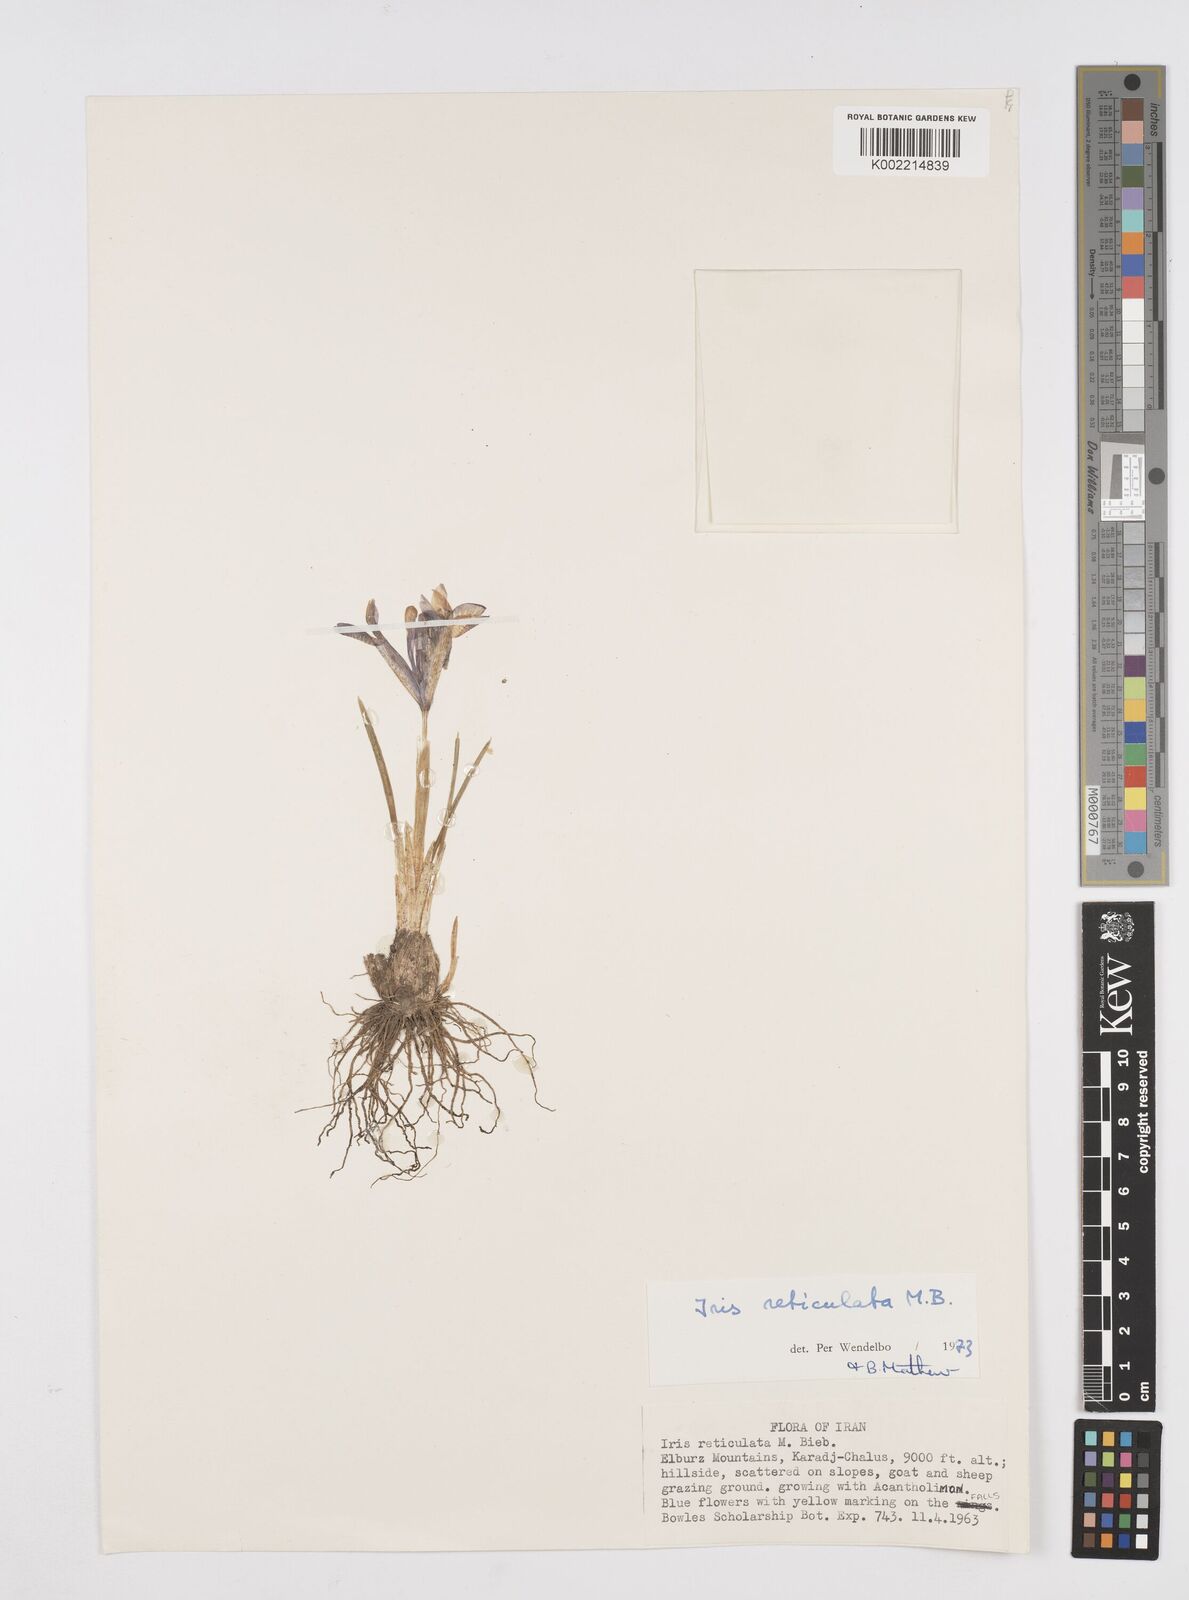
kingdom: Plantae
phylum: Tracheophyta
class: Liliopsida
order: Asparagales
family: Iridaceae
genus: Iris
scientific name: Iris reticulata
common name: Netted iris
